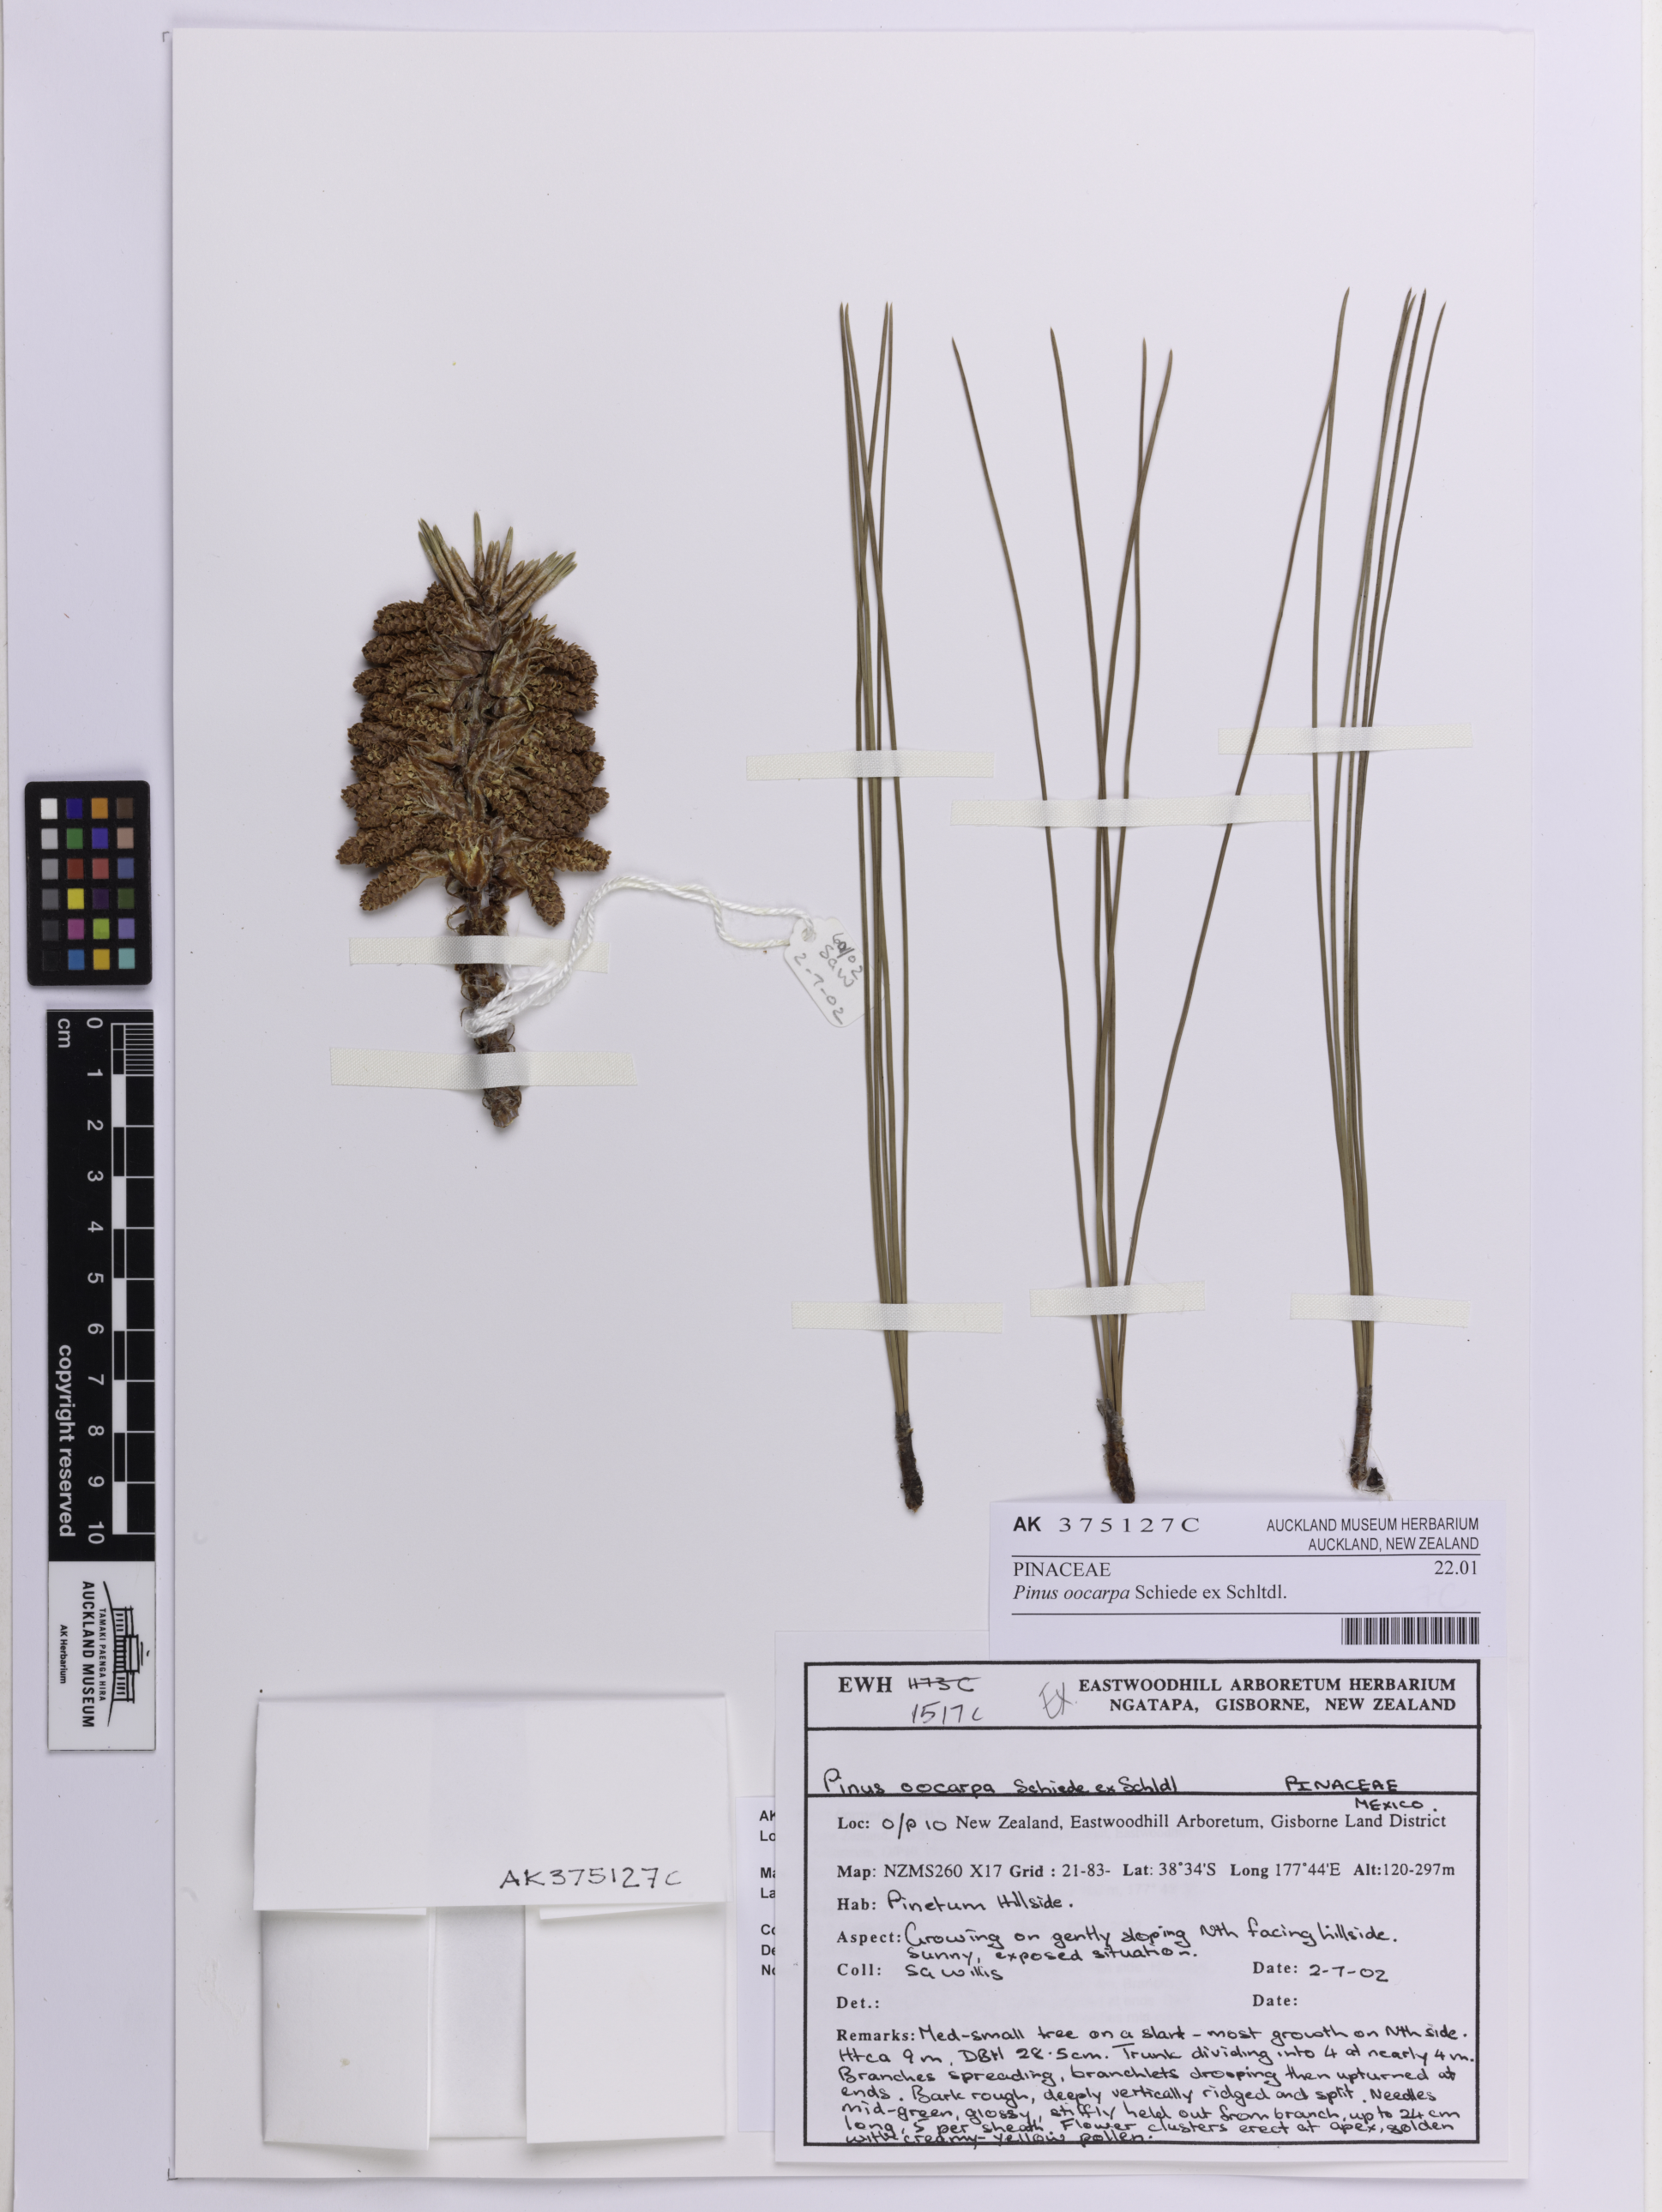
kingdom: Plantae
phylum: Tracheophyta
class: Pinopsida
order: Pinales
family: Pinaceae
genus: Pinus
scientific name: Pinus oocarpa
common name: Egg-cone pine
